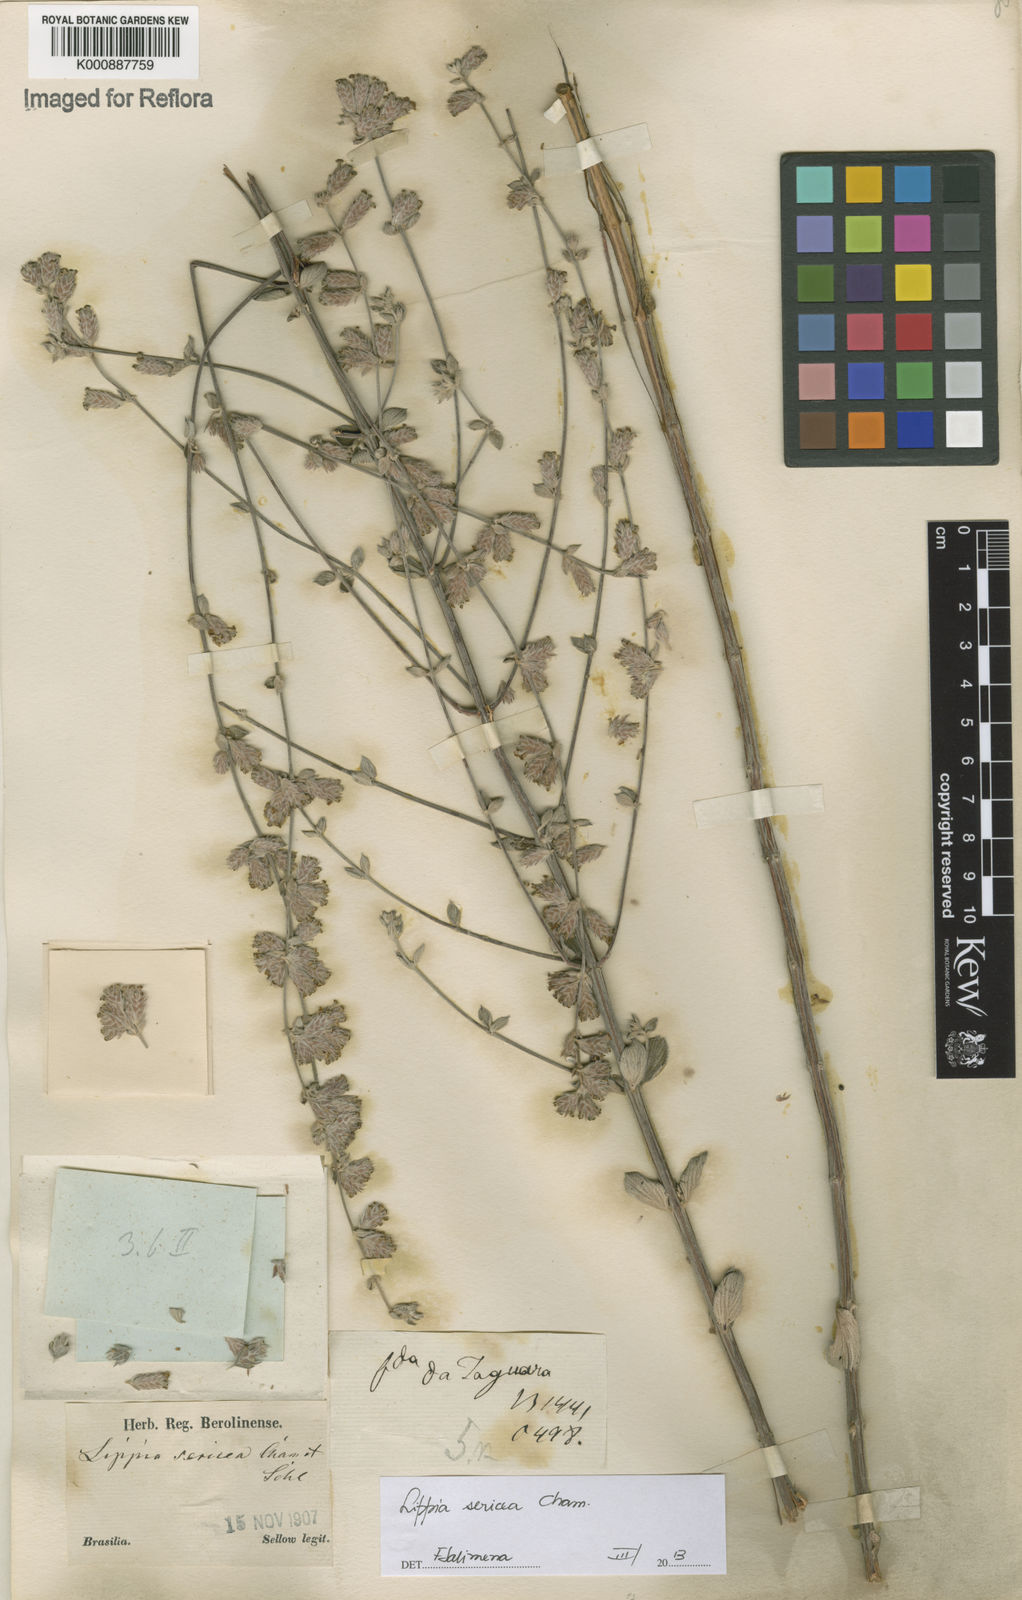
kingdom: Plantae
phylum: Tracheophyta
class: Magnoliopsida
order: Lamiales
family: Verbenaceae
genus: Lippia
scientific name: Lippia sericea
